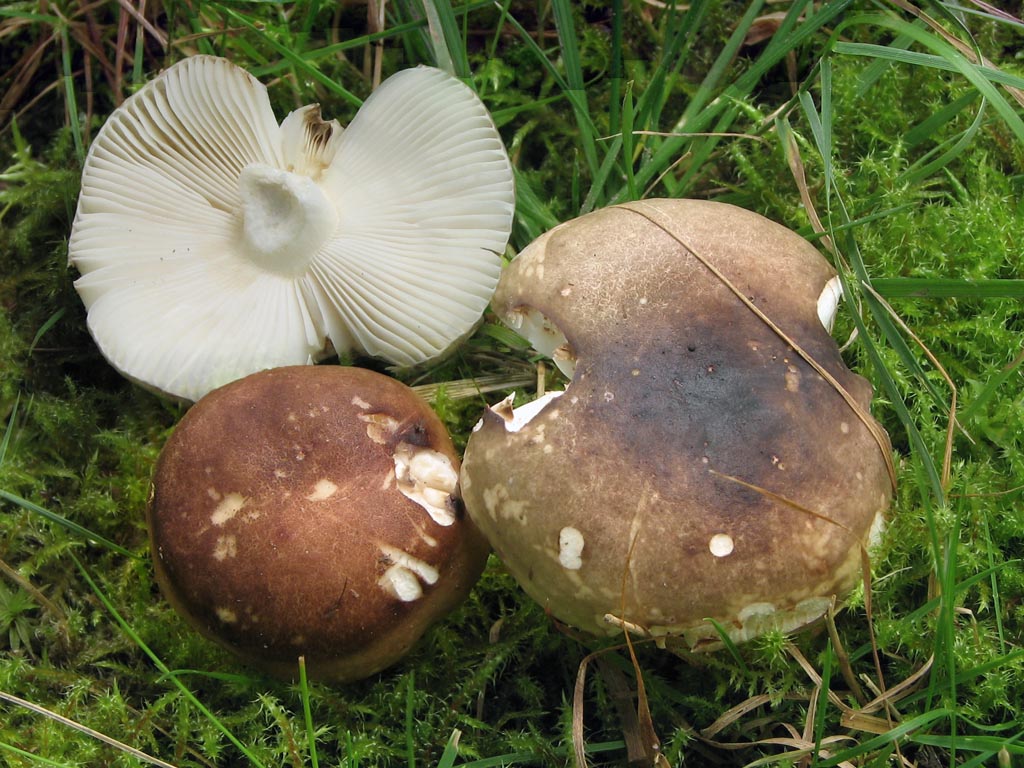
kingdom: Fungi
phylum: Basidiomycota
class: Agaricomycetes
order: Russulales
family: Russulaceae
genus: Russula
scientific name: Russula fragilis
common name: Fragile brittlegill
